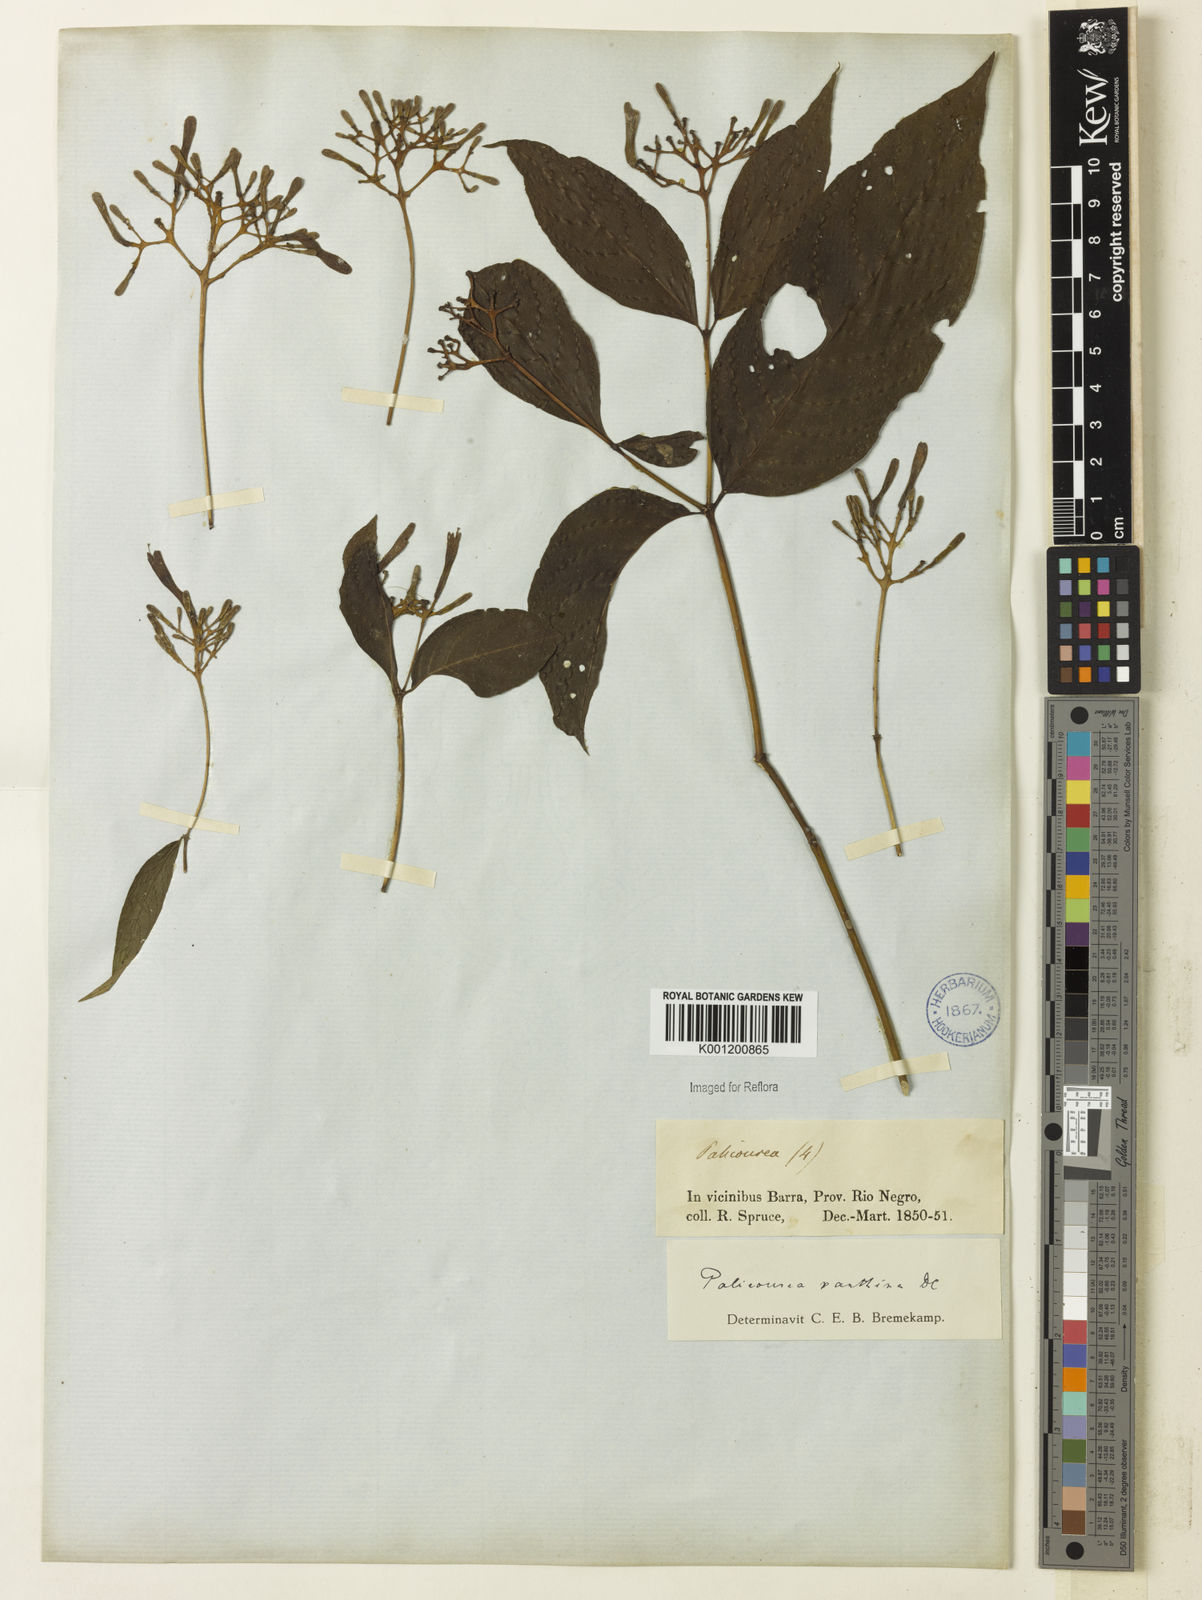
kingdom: Plantae
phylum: Tracheophyta
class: Magnoliopsida
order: Gentianales
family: Rubiaceae
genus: Palicourea
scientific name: Palicourea longiflora
